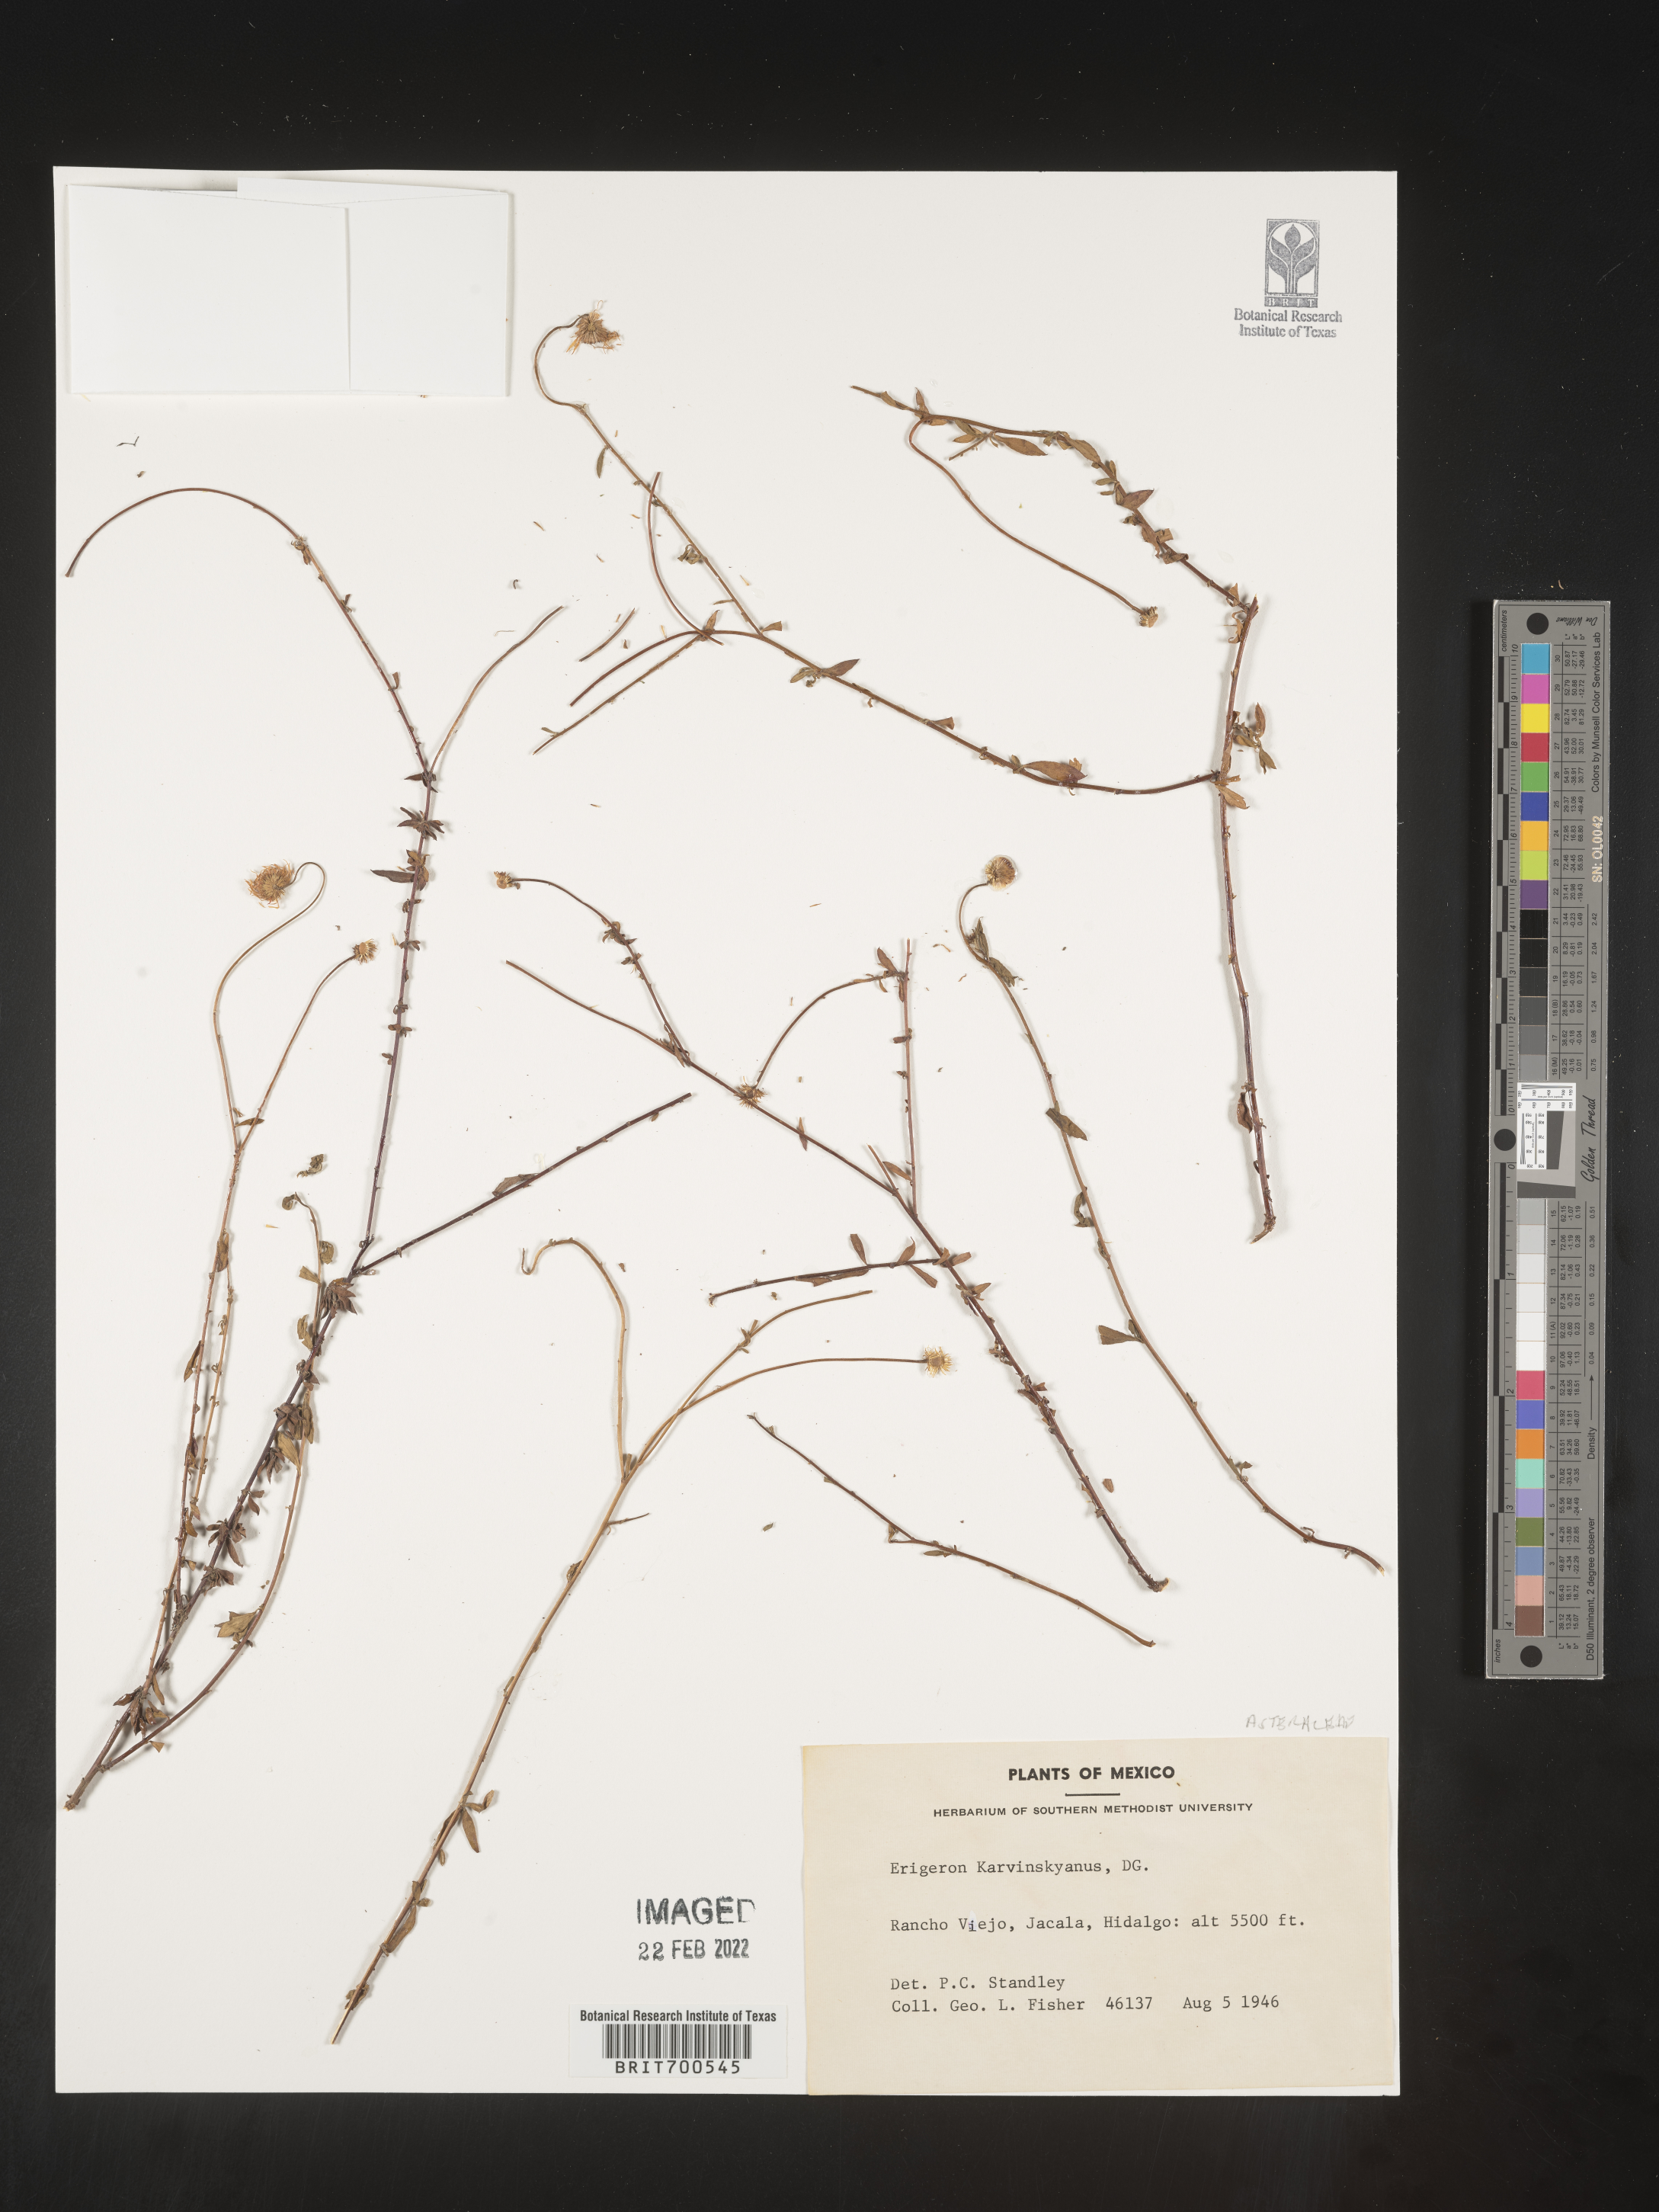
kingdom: Plantae
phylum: Tracheophyta
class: Magnoliopsida
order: Asterales
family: Asteraceae
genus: Erigeron
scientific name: Erigeron karvinskianus
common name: Mexican fleabane
